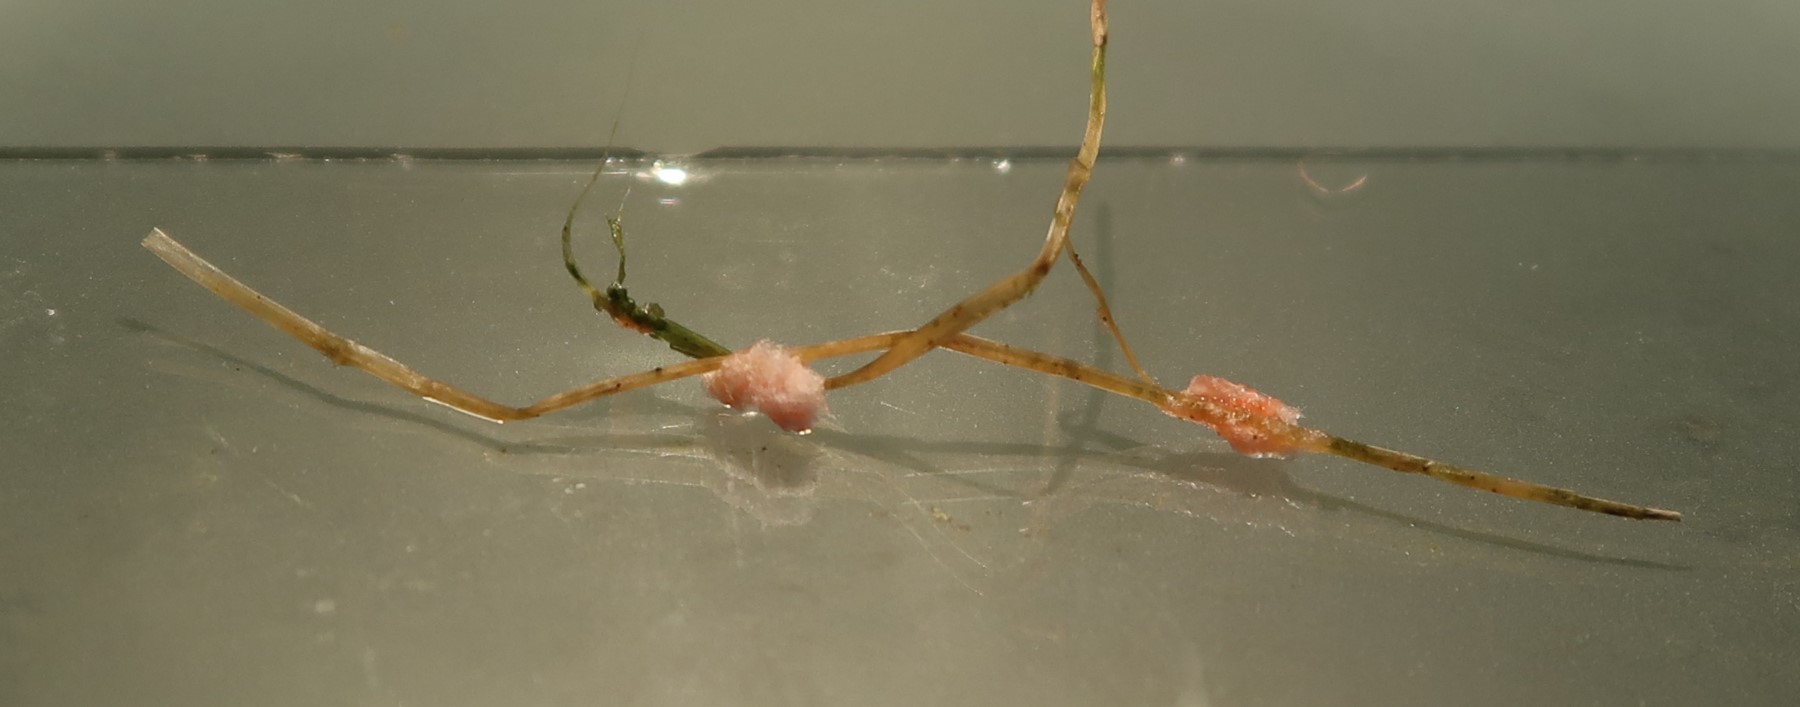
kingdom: Fungi
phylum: Basidiomycota
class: Agaricomycetes
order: Corticiales
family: Corticiaceae
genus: Laetisaria
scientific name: Laetisaria
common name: rødtråd
